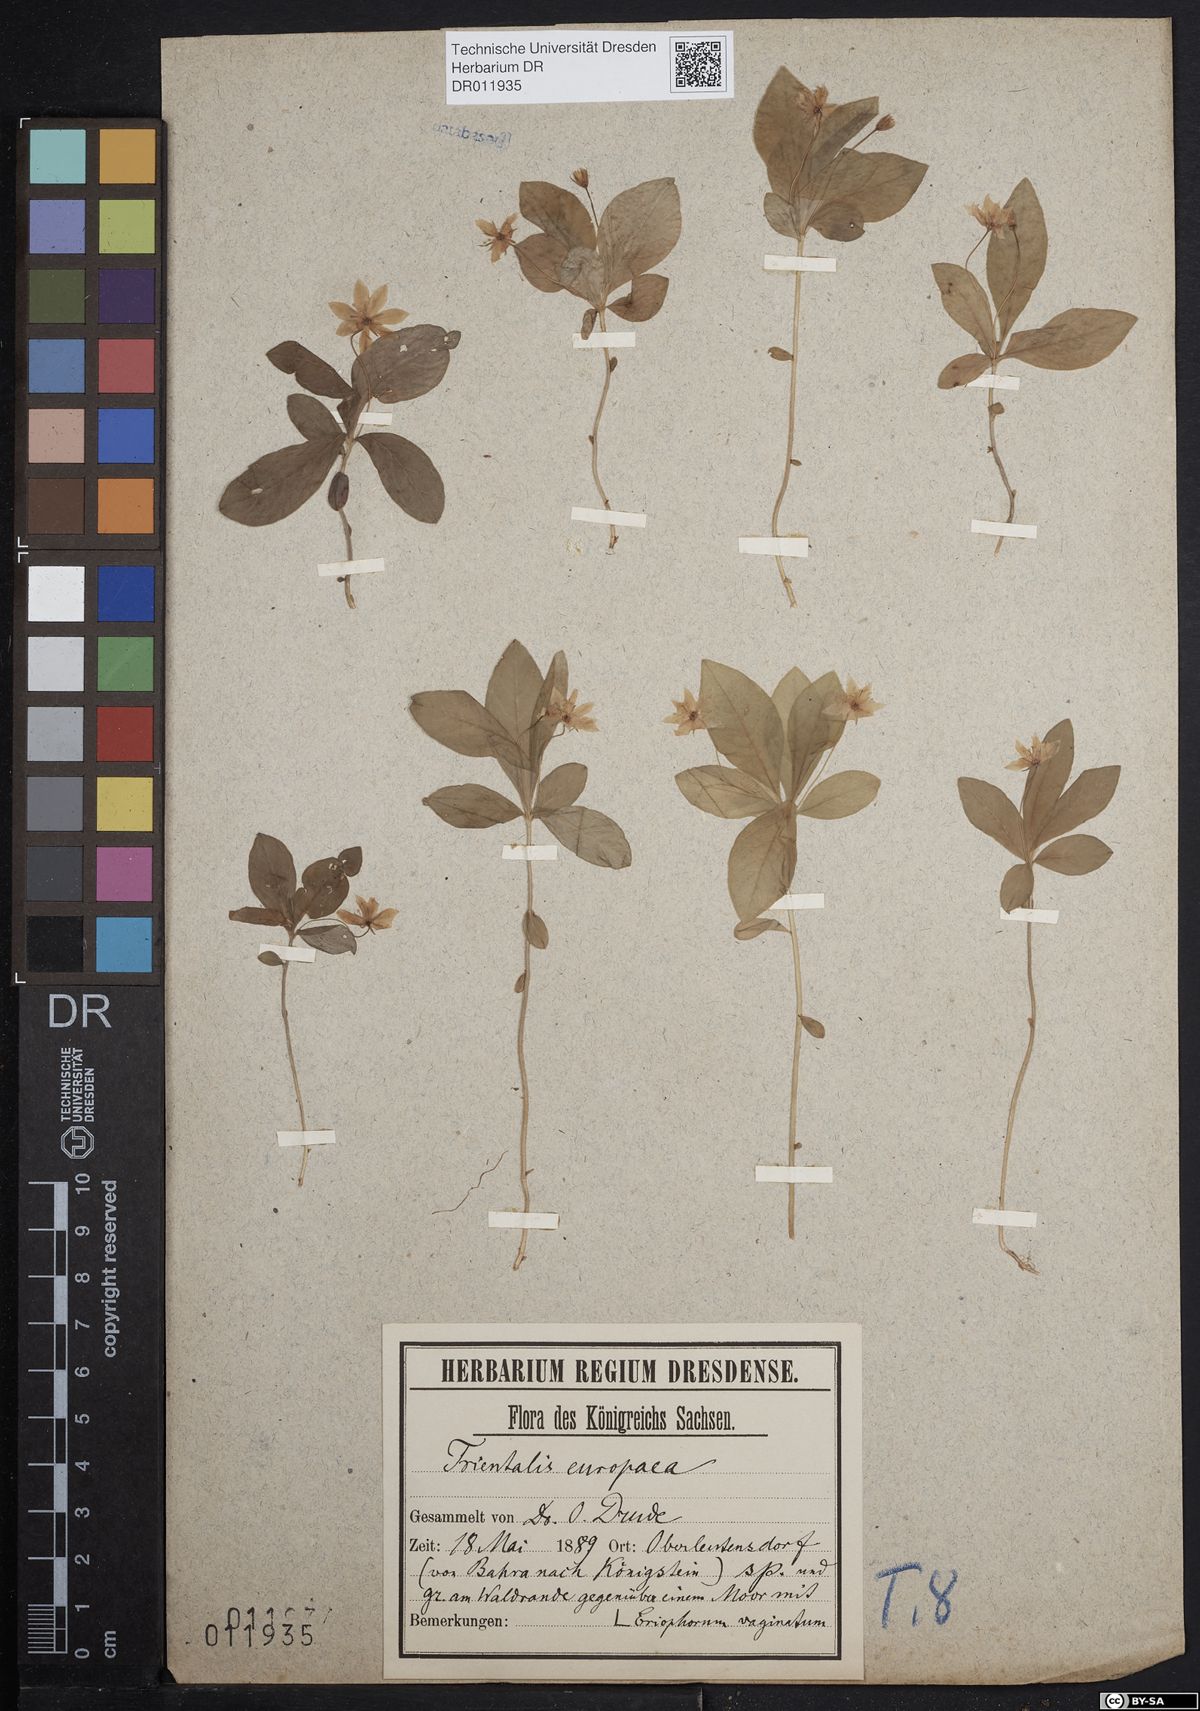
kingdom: Plantae
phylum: Tracheophyta
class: Magnoliopsida
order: Ericales
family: Primulaceae
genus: Lysimachia
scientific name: Lysimachia europaea
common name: Arctic starflower
